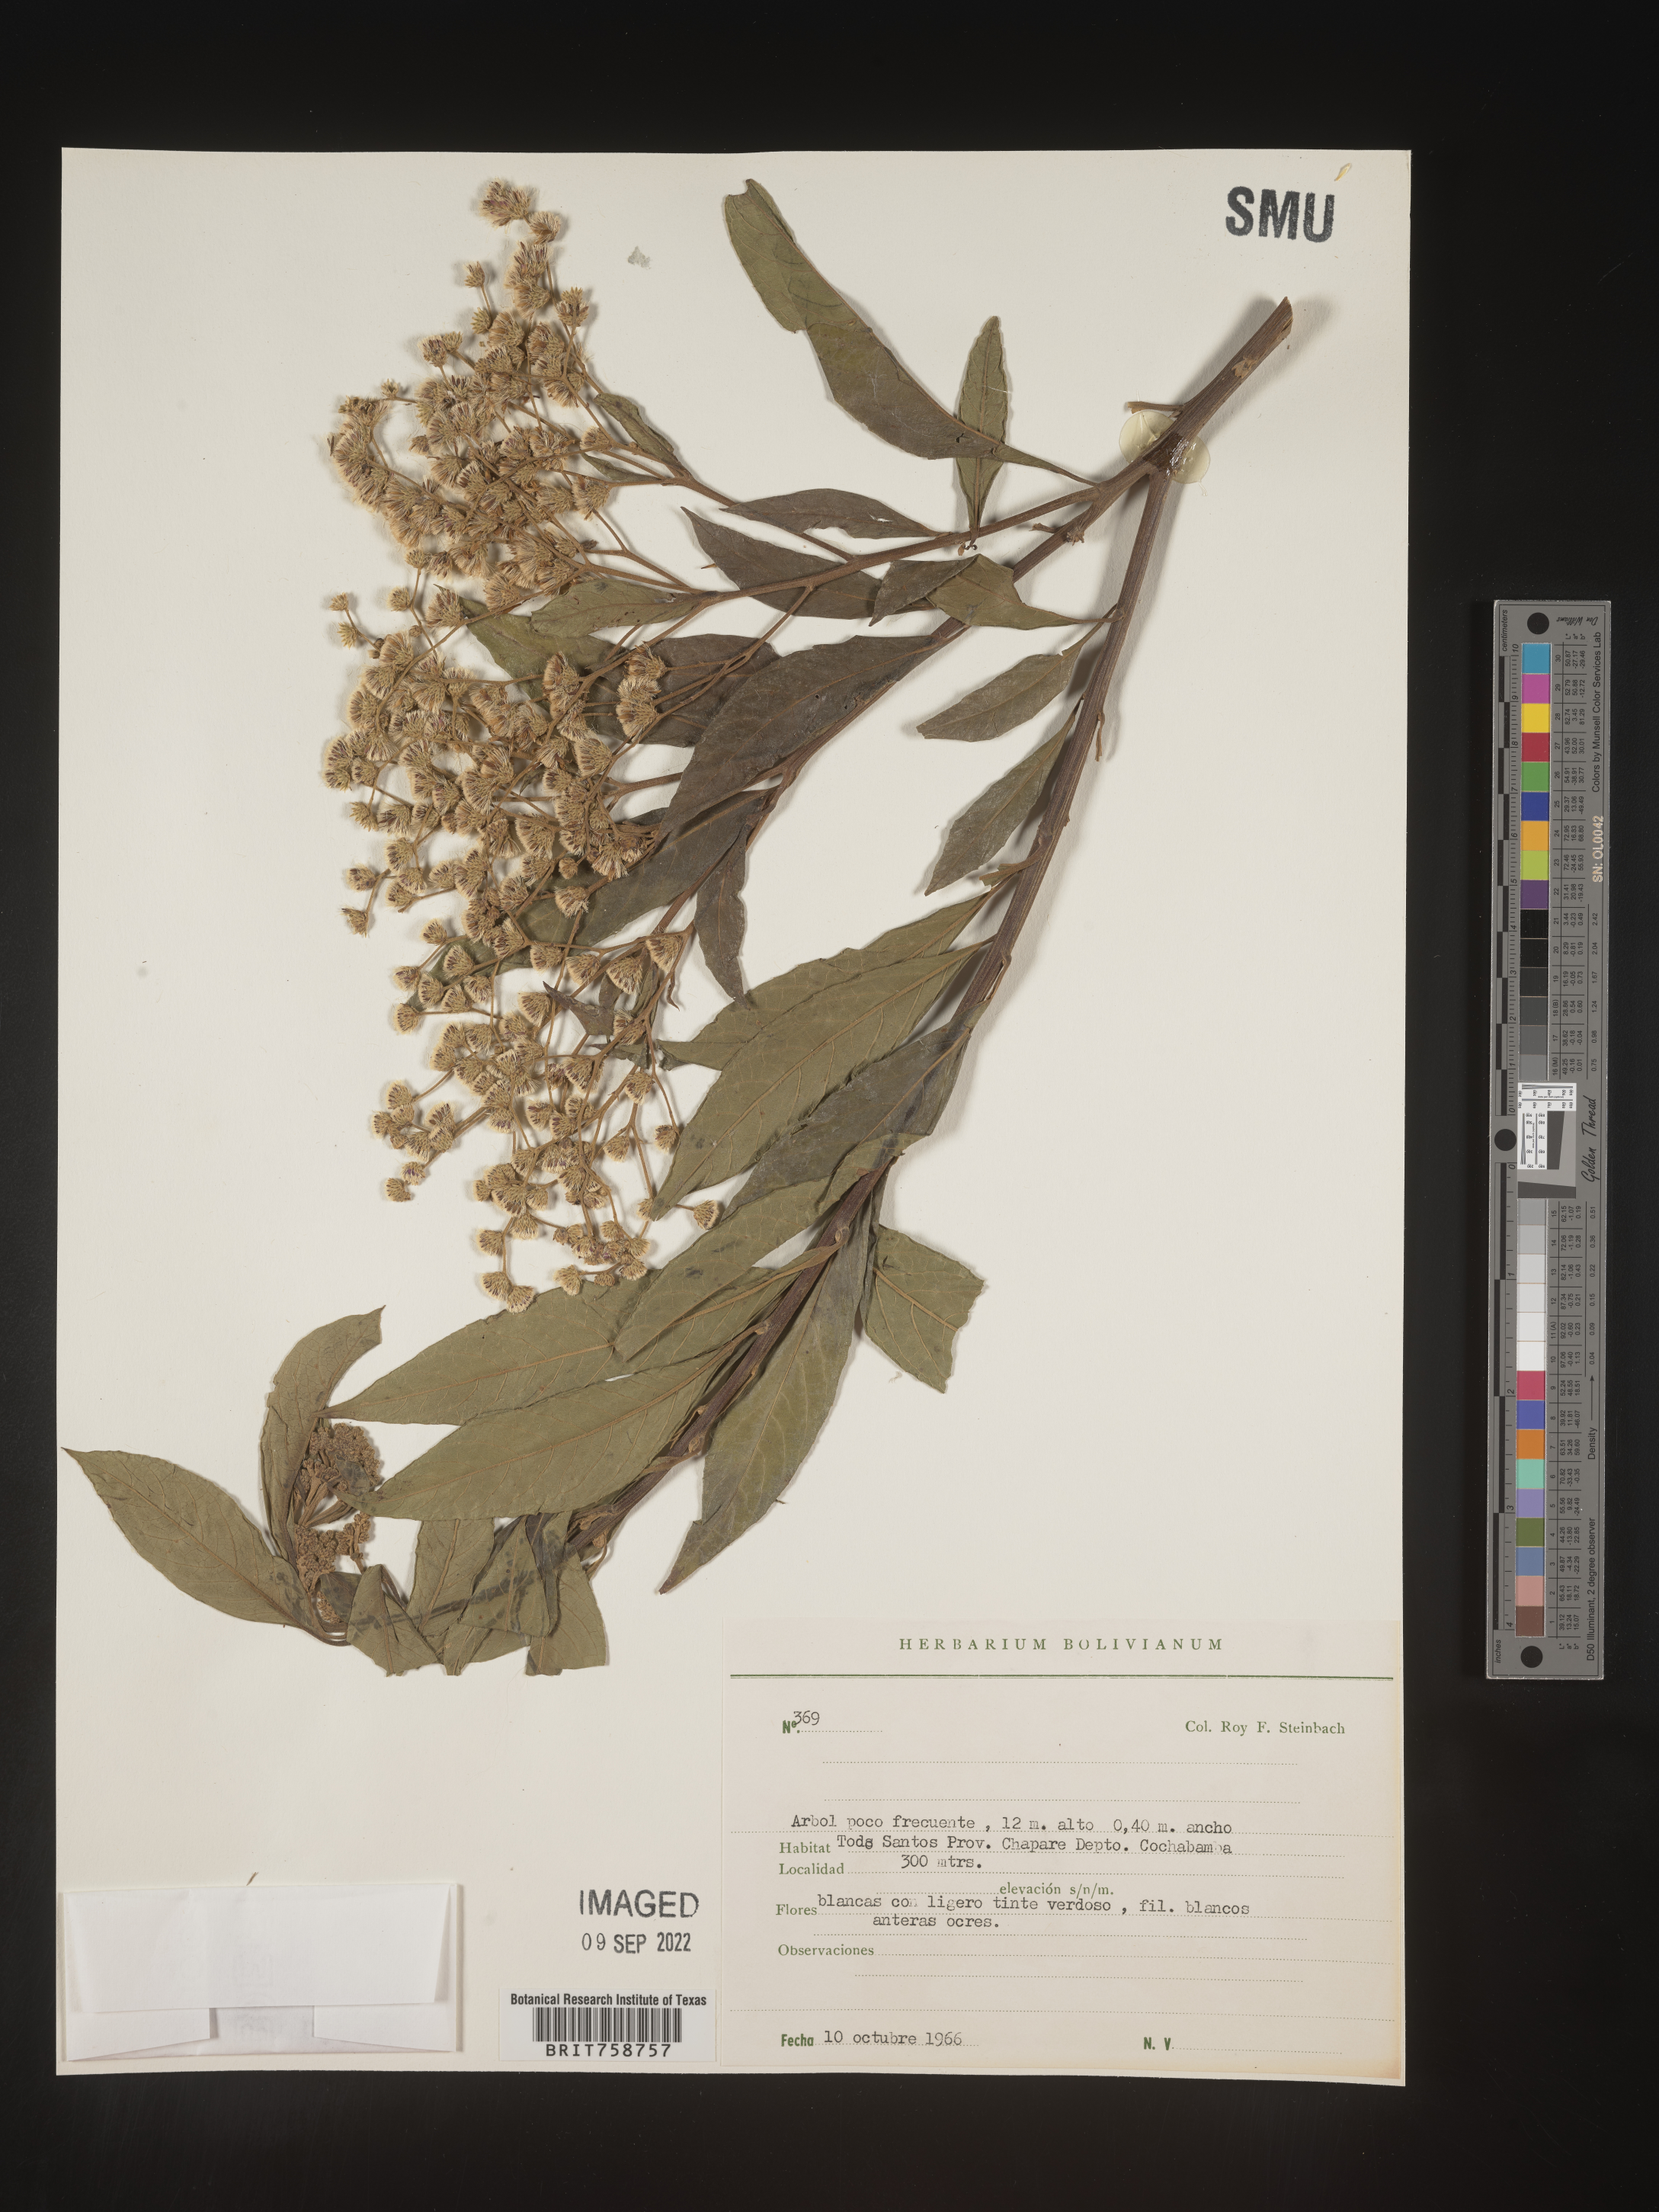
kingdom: Plantae
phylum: Tracheophyta
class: Magnoliopsida
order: Asterales
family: Asteraceae
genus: Vernonia
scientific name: Vernonia
